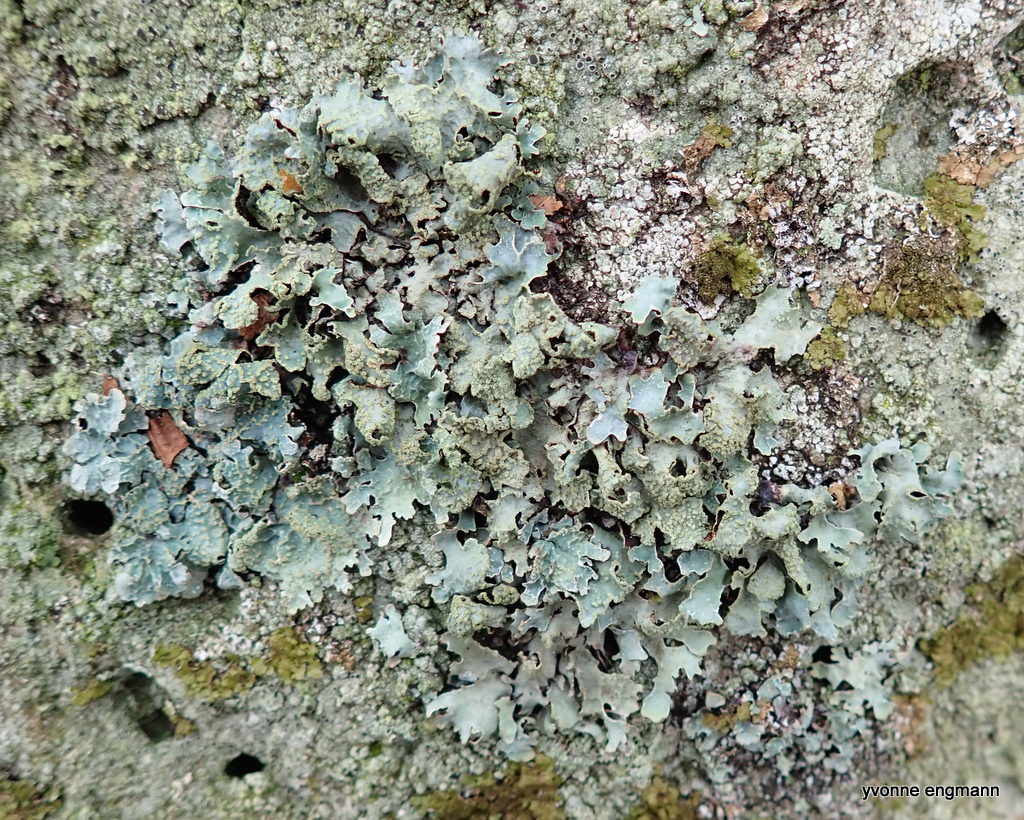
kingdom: Fungi
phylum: Ascomycota
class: Lecanoromycetes
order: Lecanorales
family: Parmeliaceae
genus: Parmelia
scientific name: Parmelia sulcata
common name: rynket skållav
